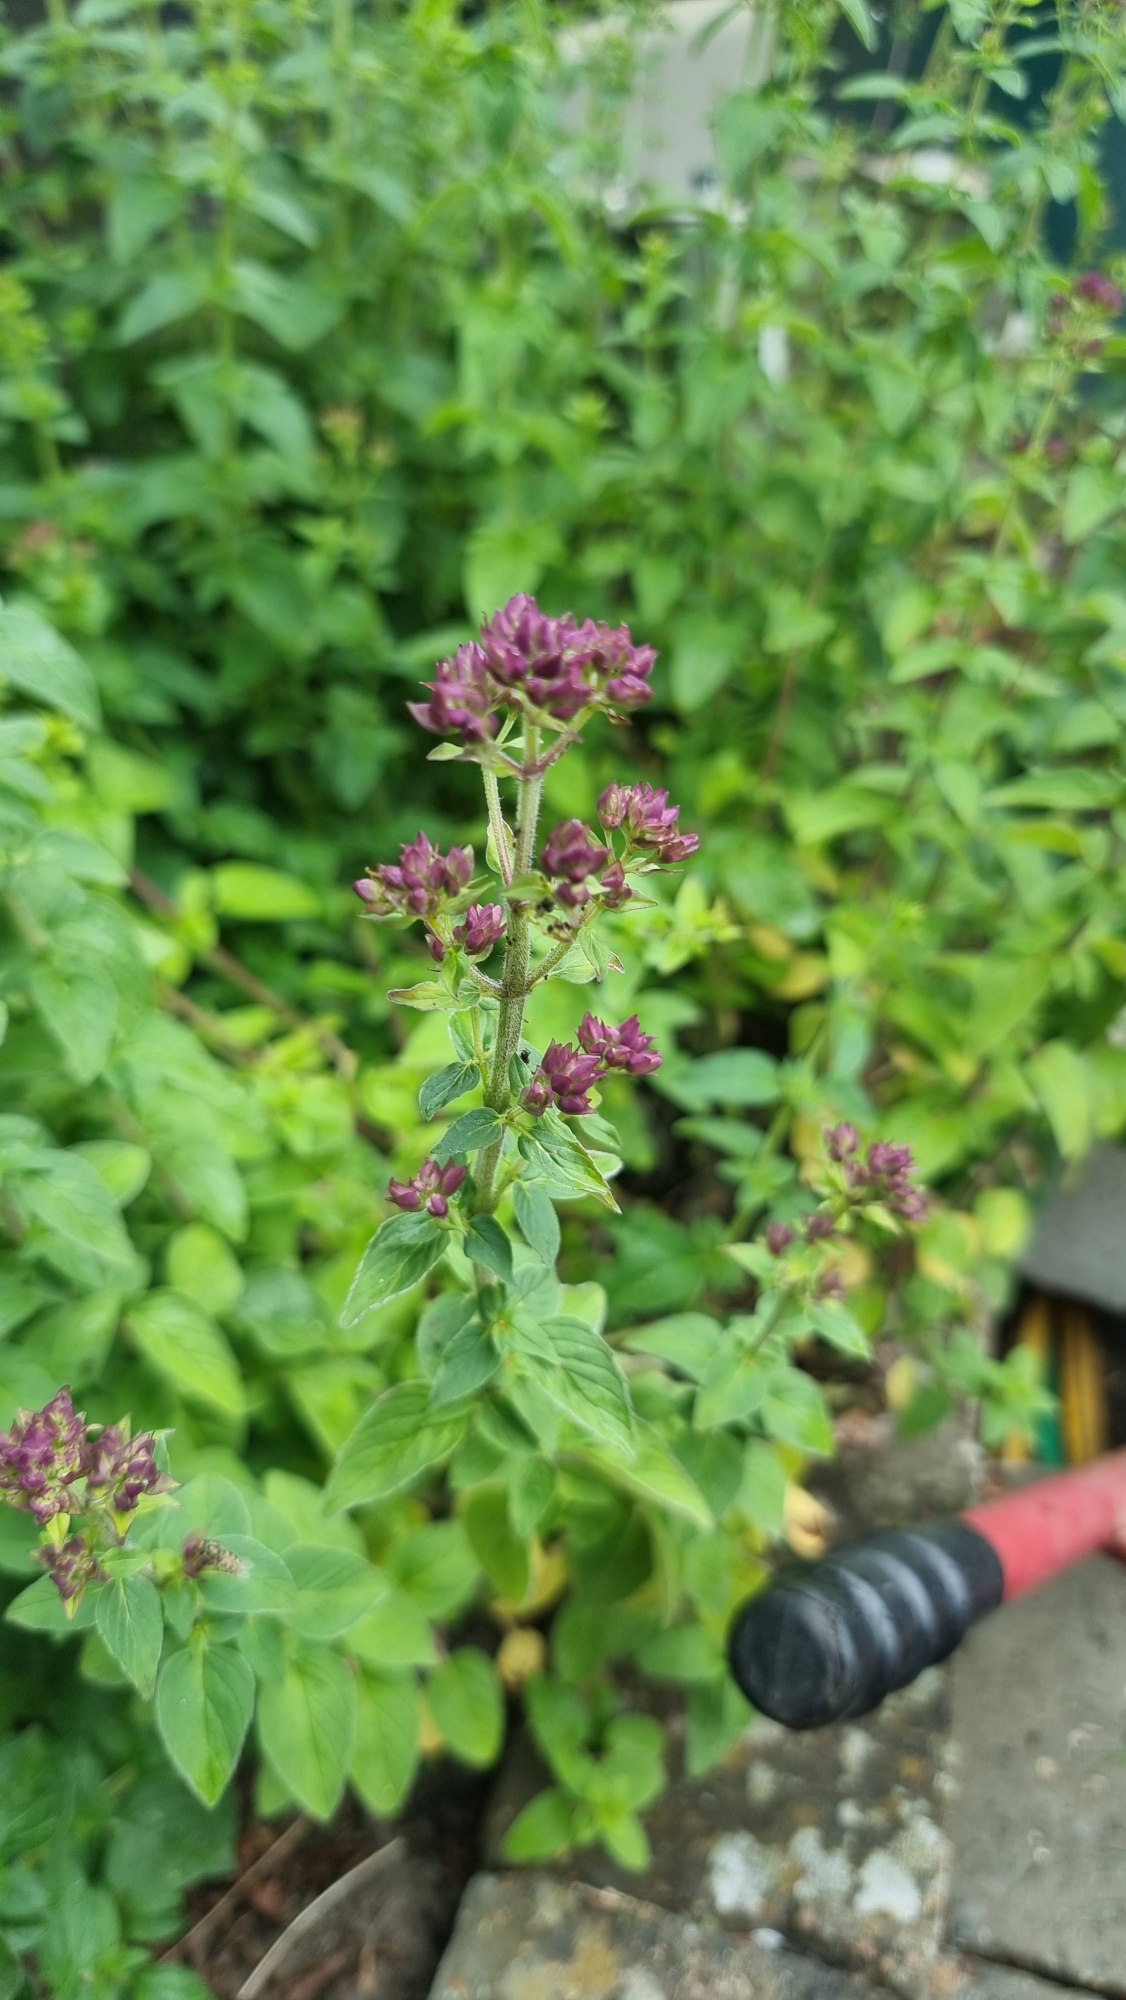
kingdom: Plantae
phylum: Tracheophyta
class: Magnoliopsida
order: Lamiales
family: Lamiaceae
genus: Origanum
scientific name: Origanum vulgare
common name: Merian
